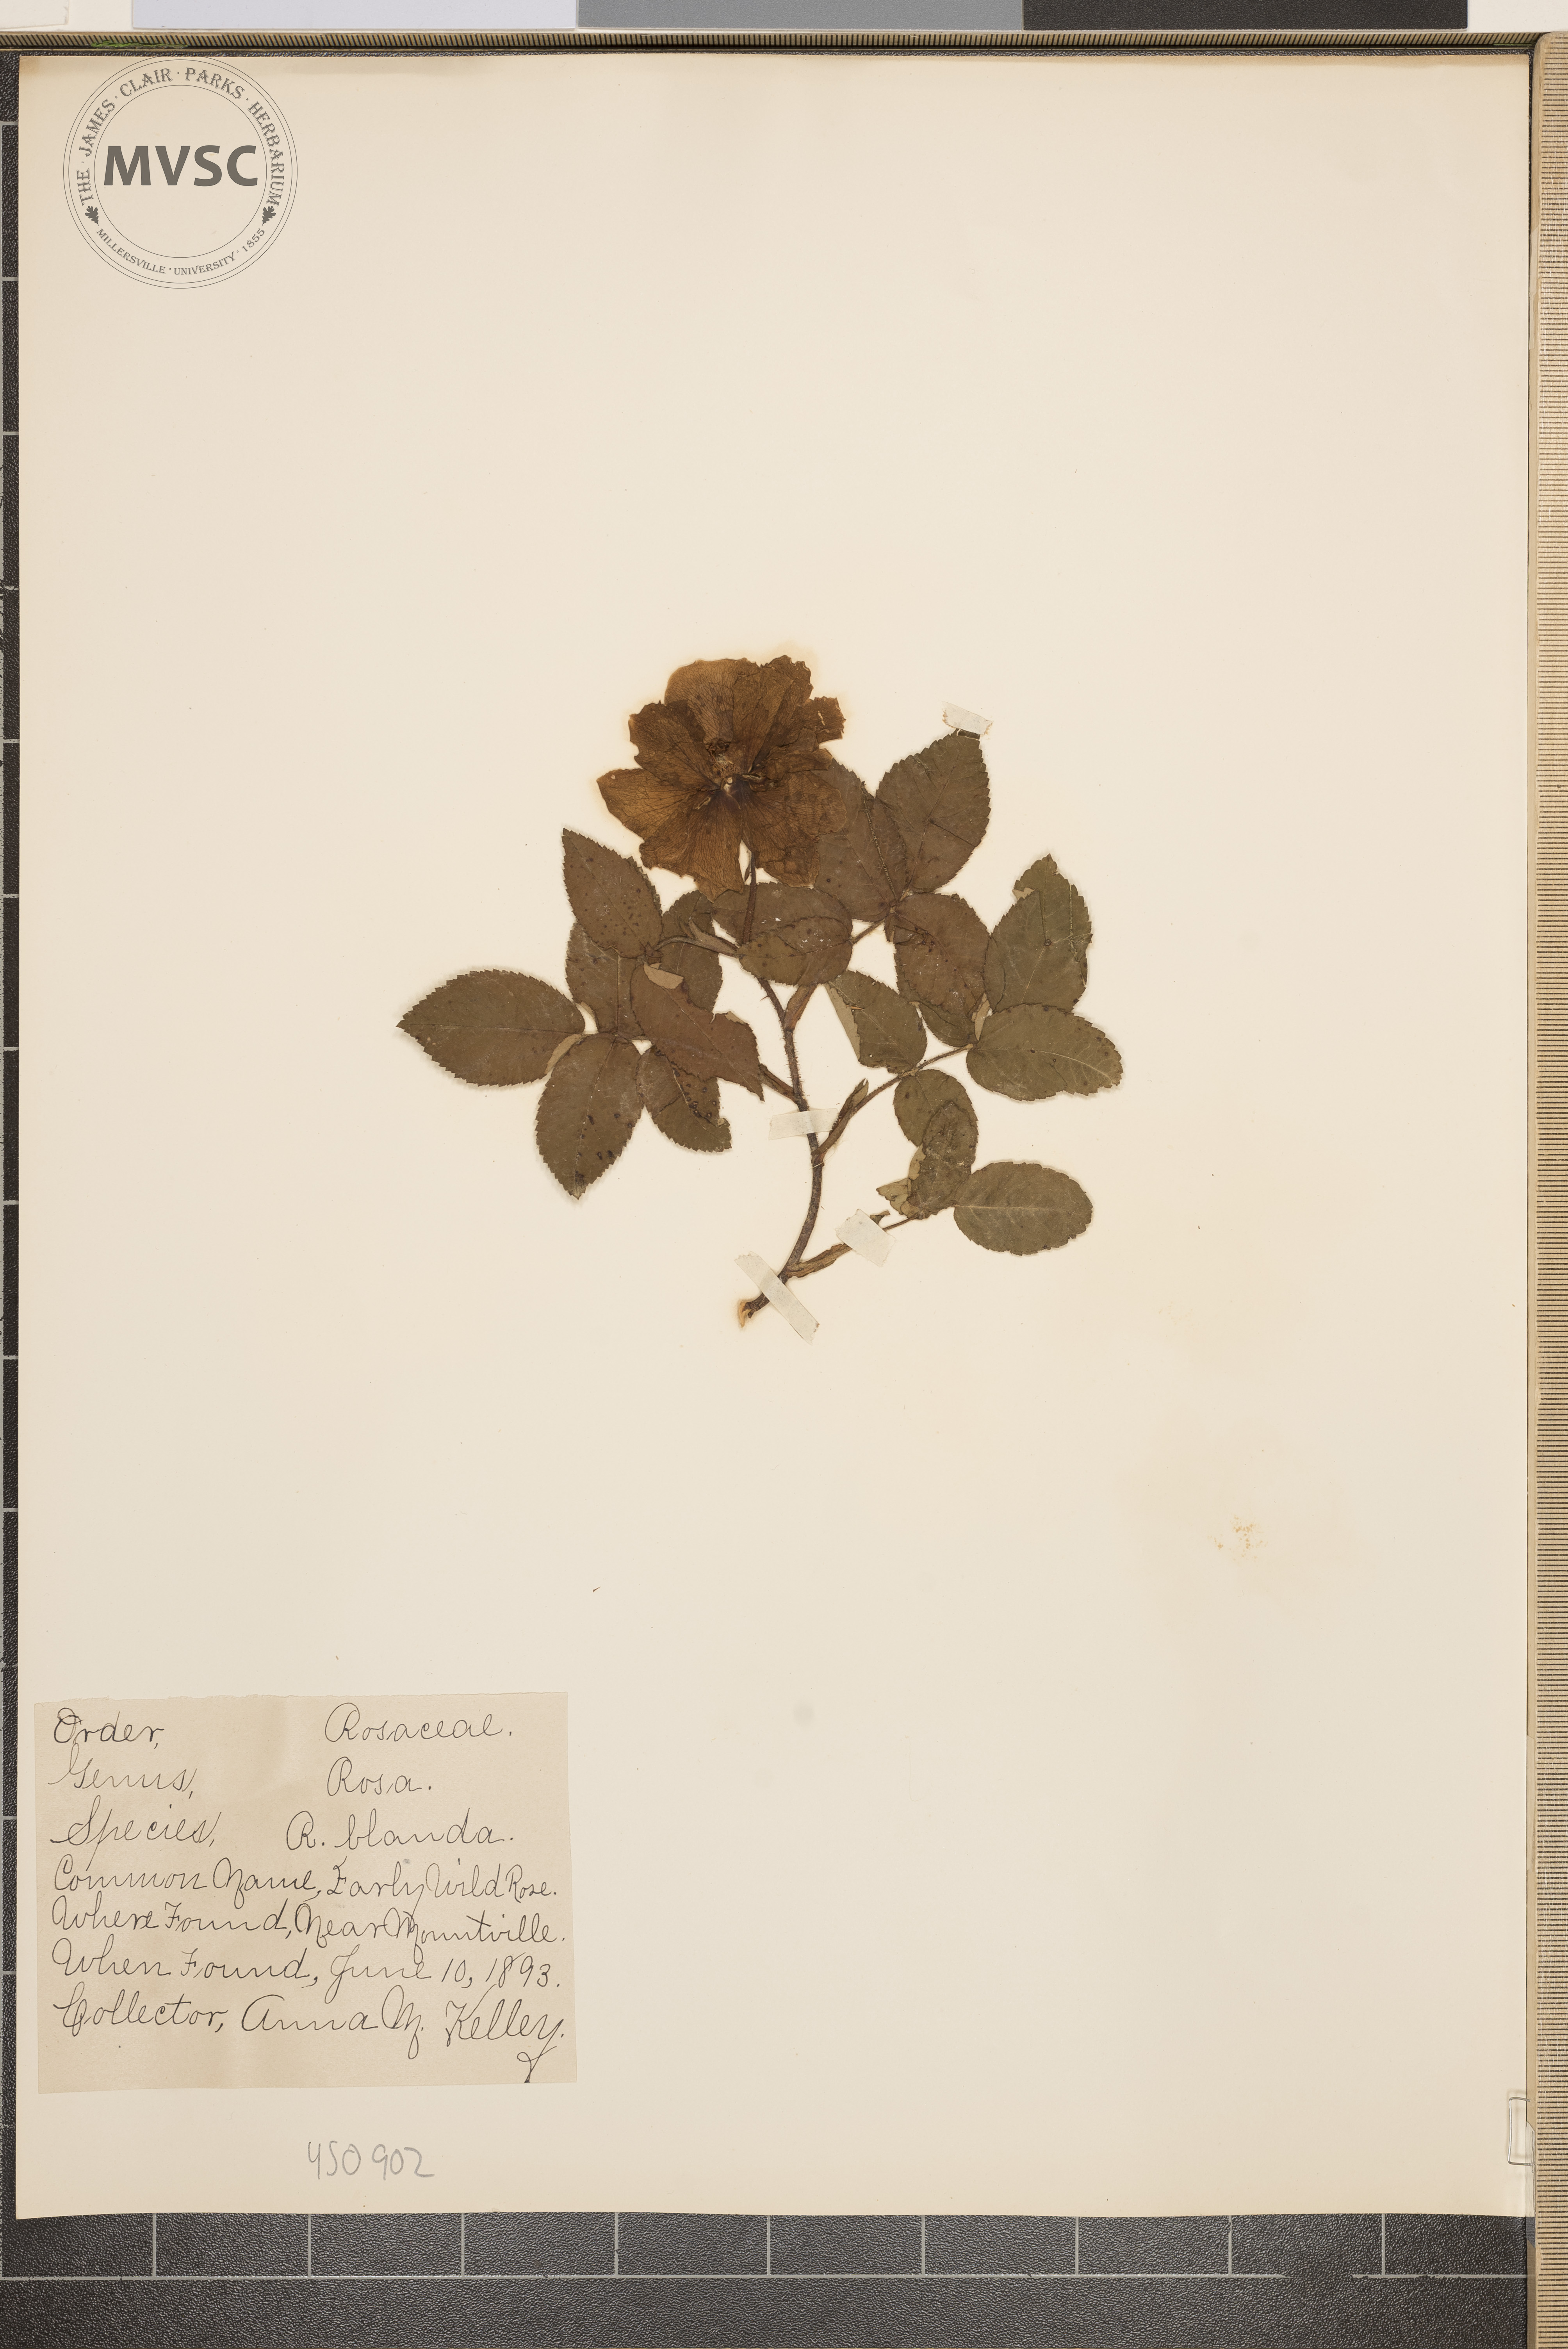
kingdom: Plantae
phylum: Tracheophyta
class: Magnoliopsida
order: Rosales
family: Rosaceae
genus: Rosa
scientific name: Rosa blanda
